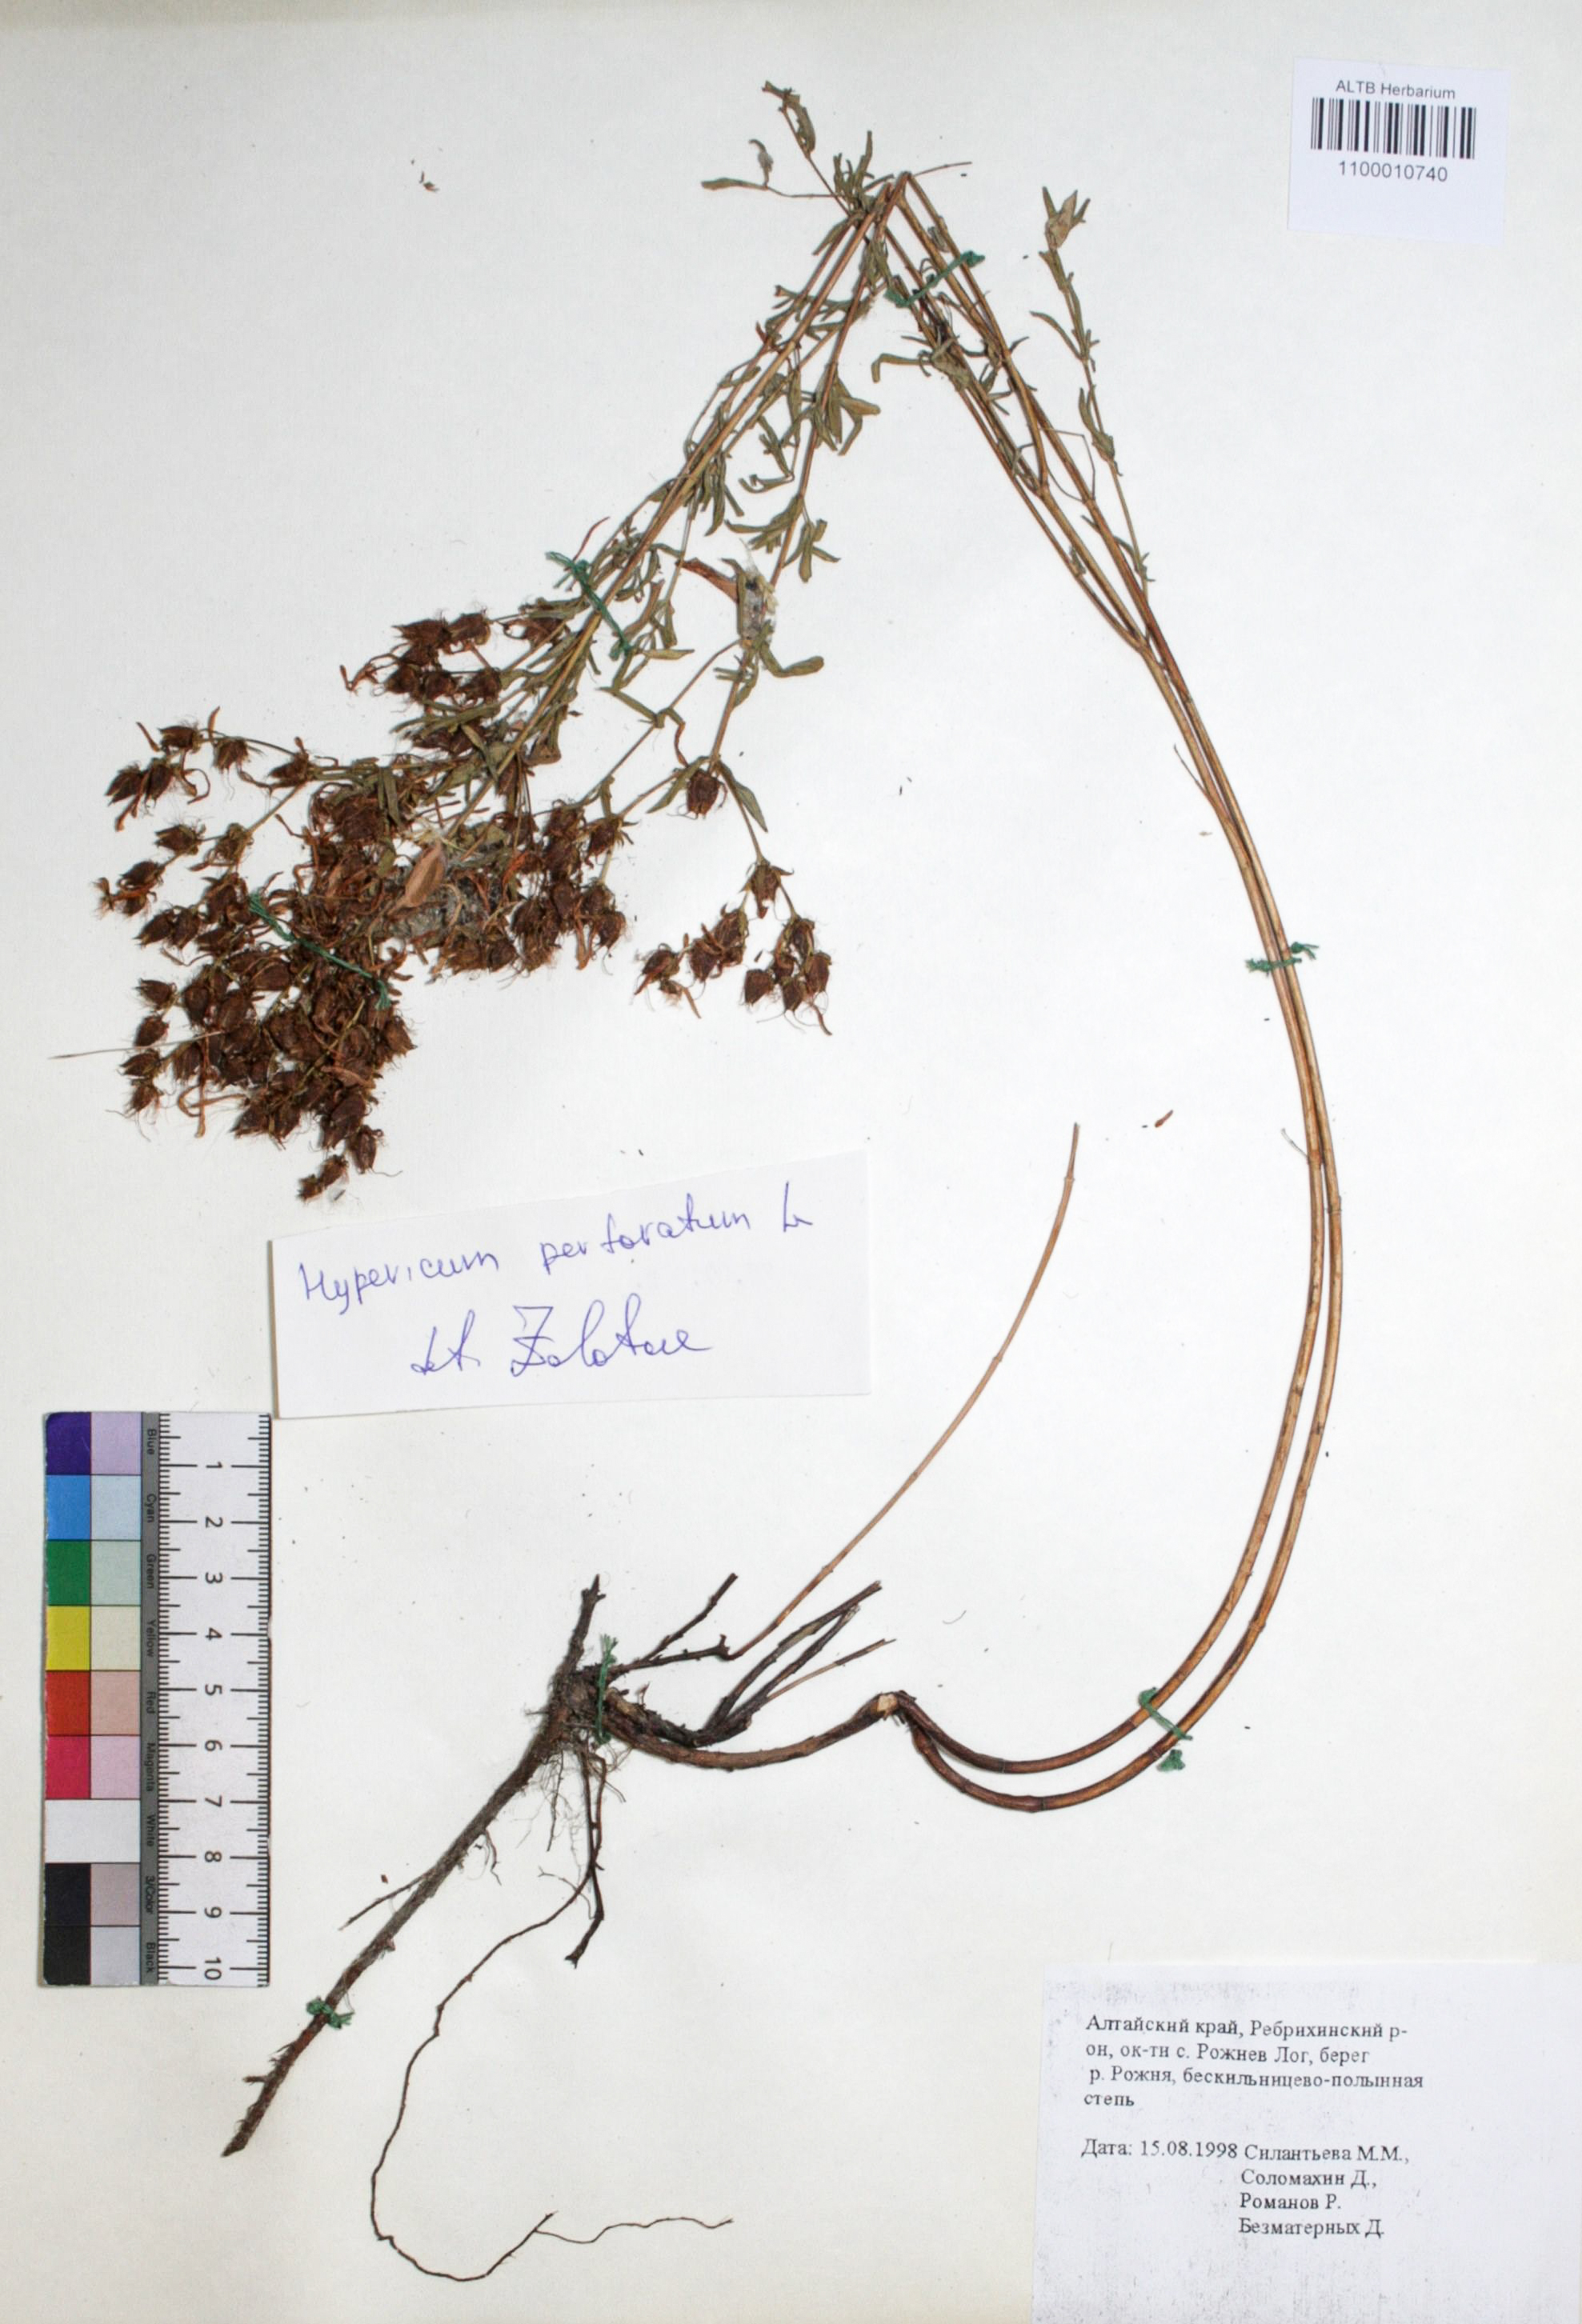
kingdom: Plantae
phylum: Tracheophyta
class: Magnoliopsida
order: Malpighiales
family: Hypericaceae
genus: Hypericum
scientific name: Hypericum perforatum
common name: Common st. johnswort
